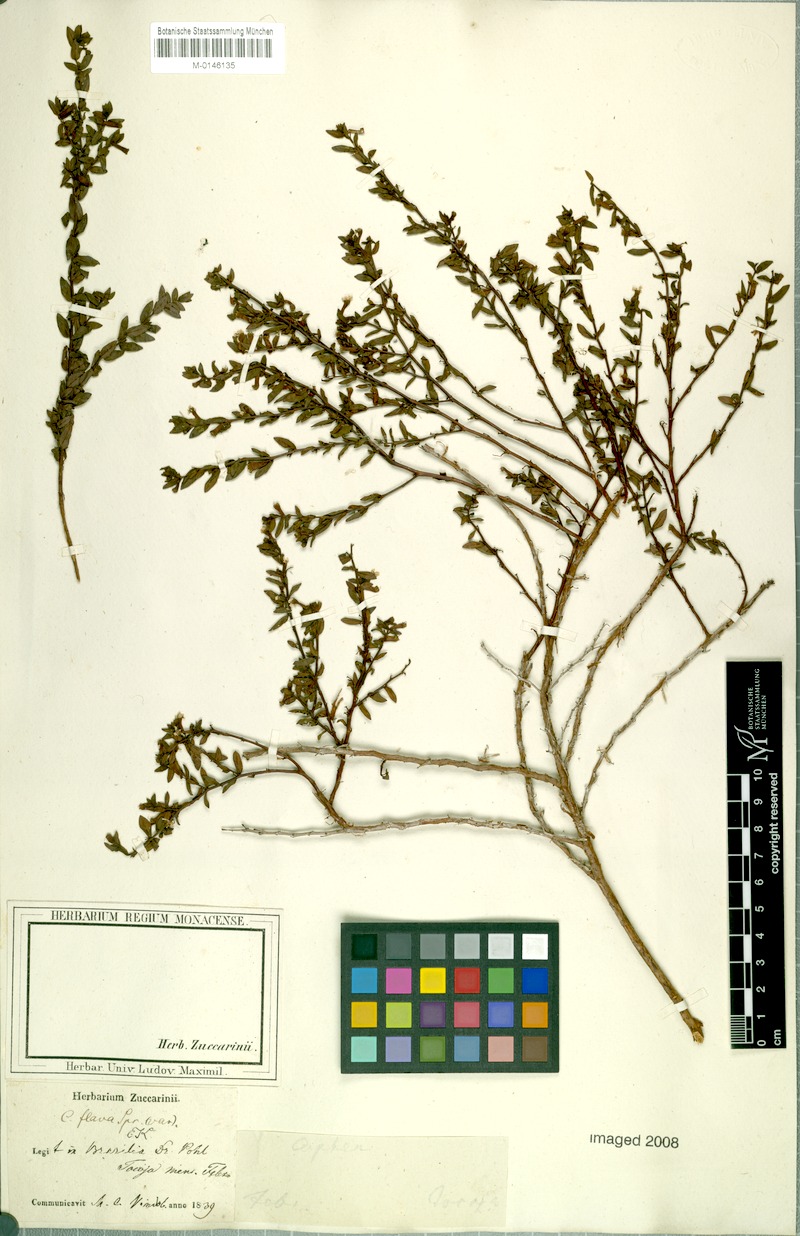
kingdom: Plantae
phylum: Tracheophyta
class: Magnoliopsida
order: Myrtales
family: Lythraceae
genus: Cuphea
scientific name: Cuphea flava
